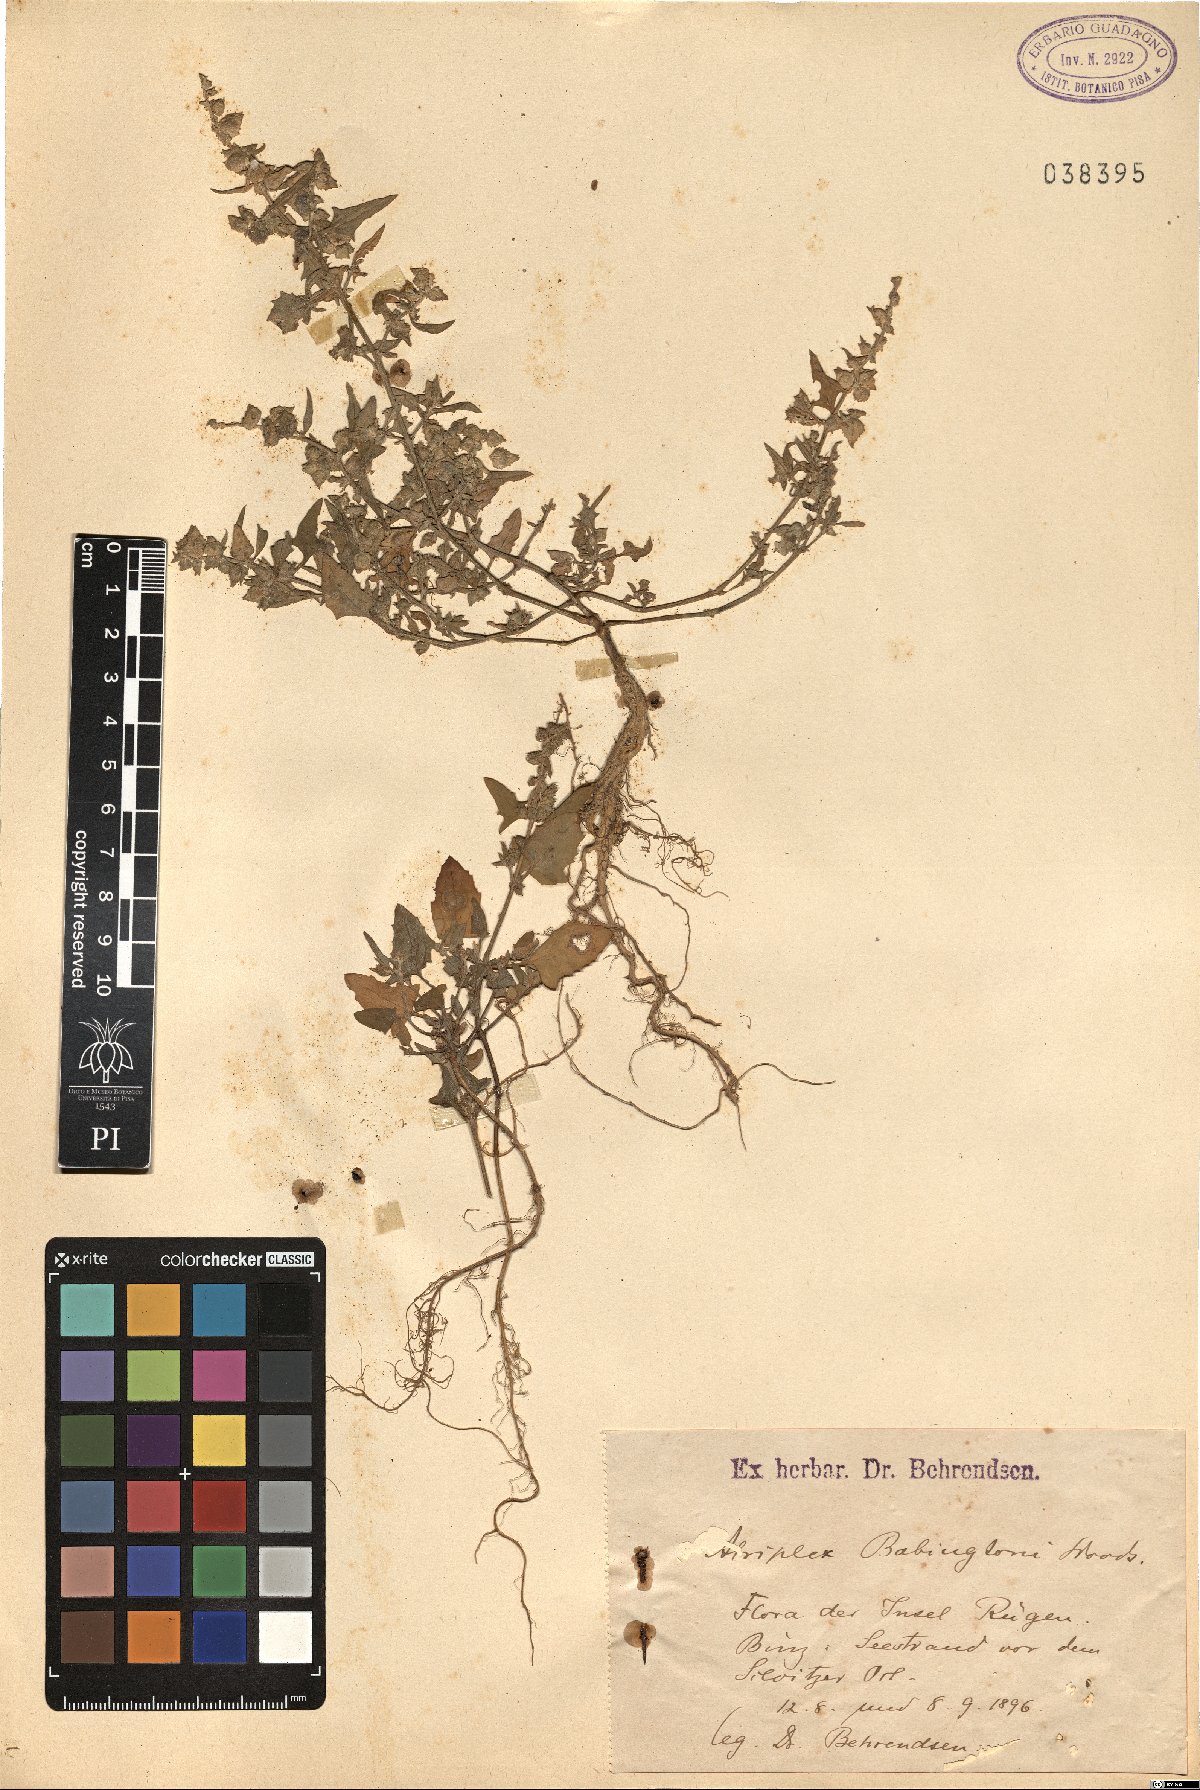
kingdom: Plantae
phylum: Tracheophyta
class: Magnoliopsida
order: Caryophyllales
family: Amaranthaceae
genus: Atriplex
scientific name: Atriplex glabriuscula
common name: Babington's orache
